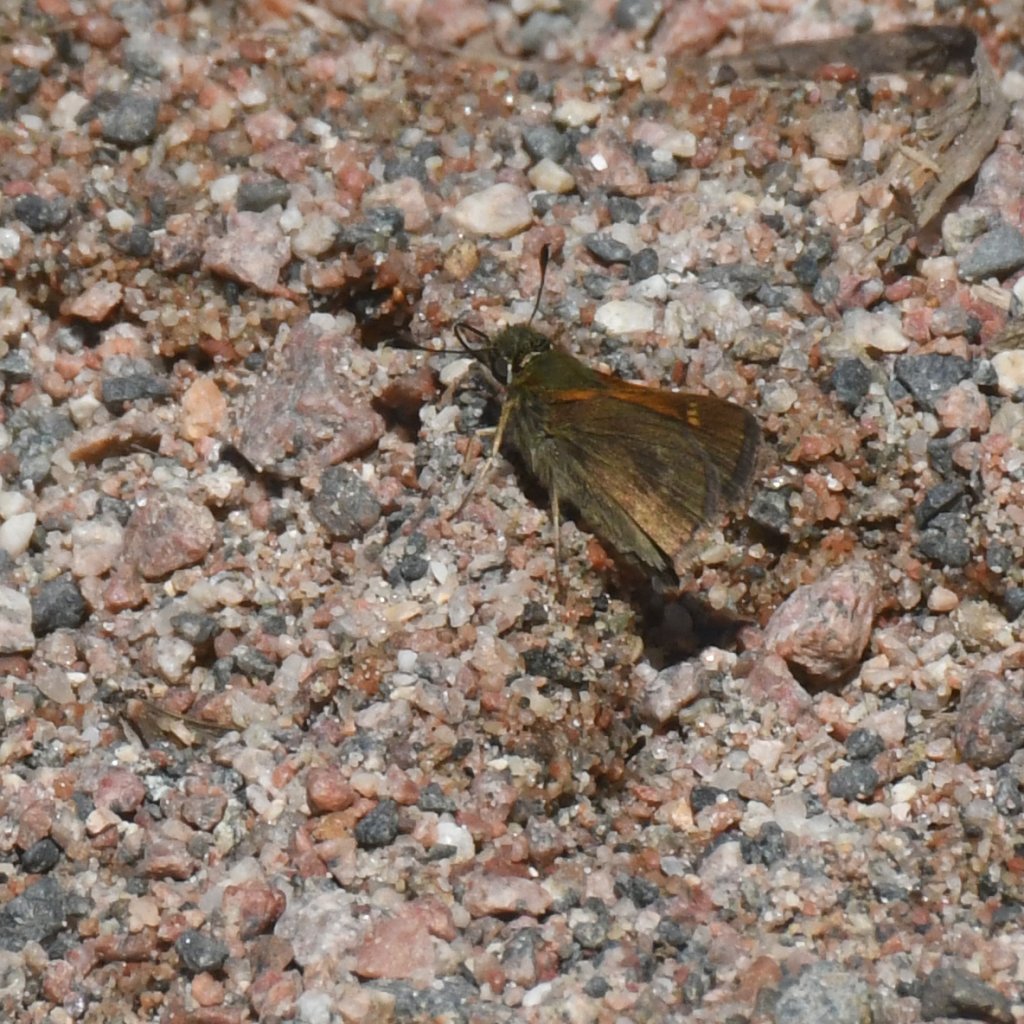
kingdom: Animalia
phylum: Arthropoda
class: Insecta
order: Lepidoptera
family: Hesperiidae
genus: Polites
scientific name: Polites themistocles
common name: Tawny-edged Skipper
